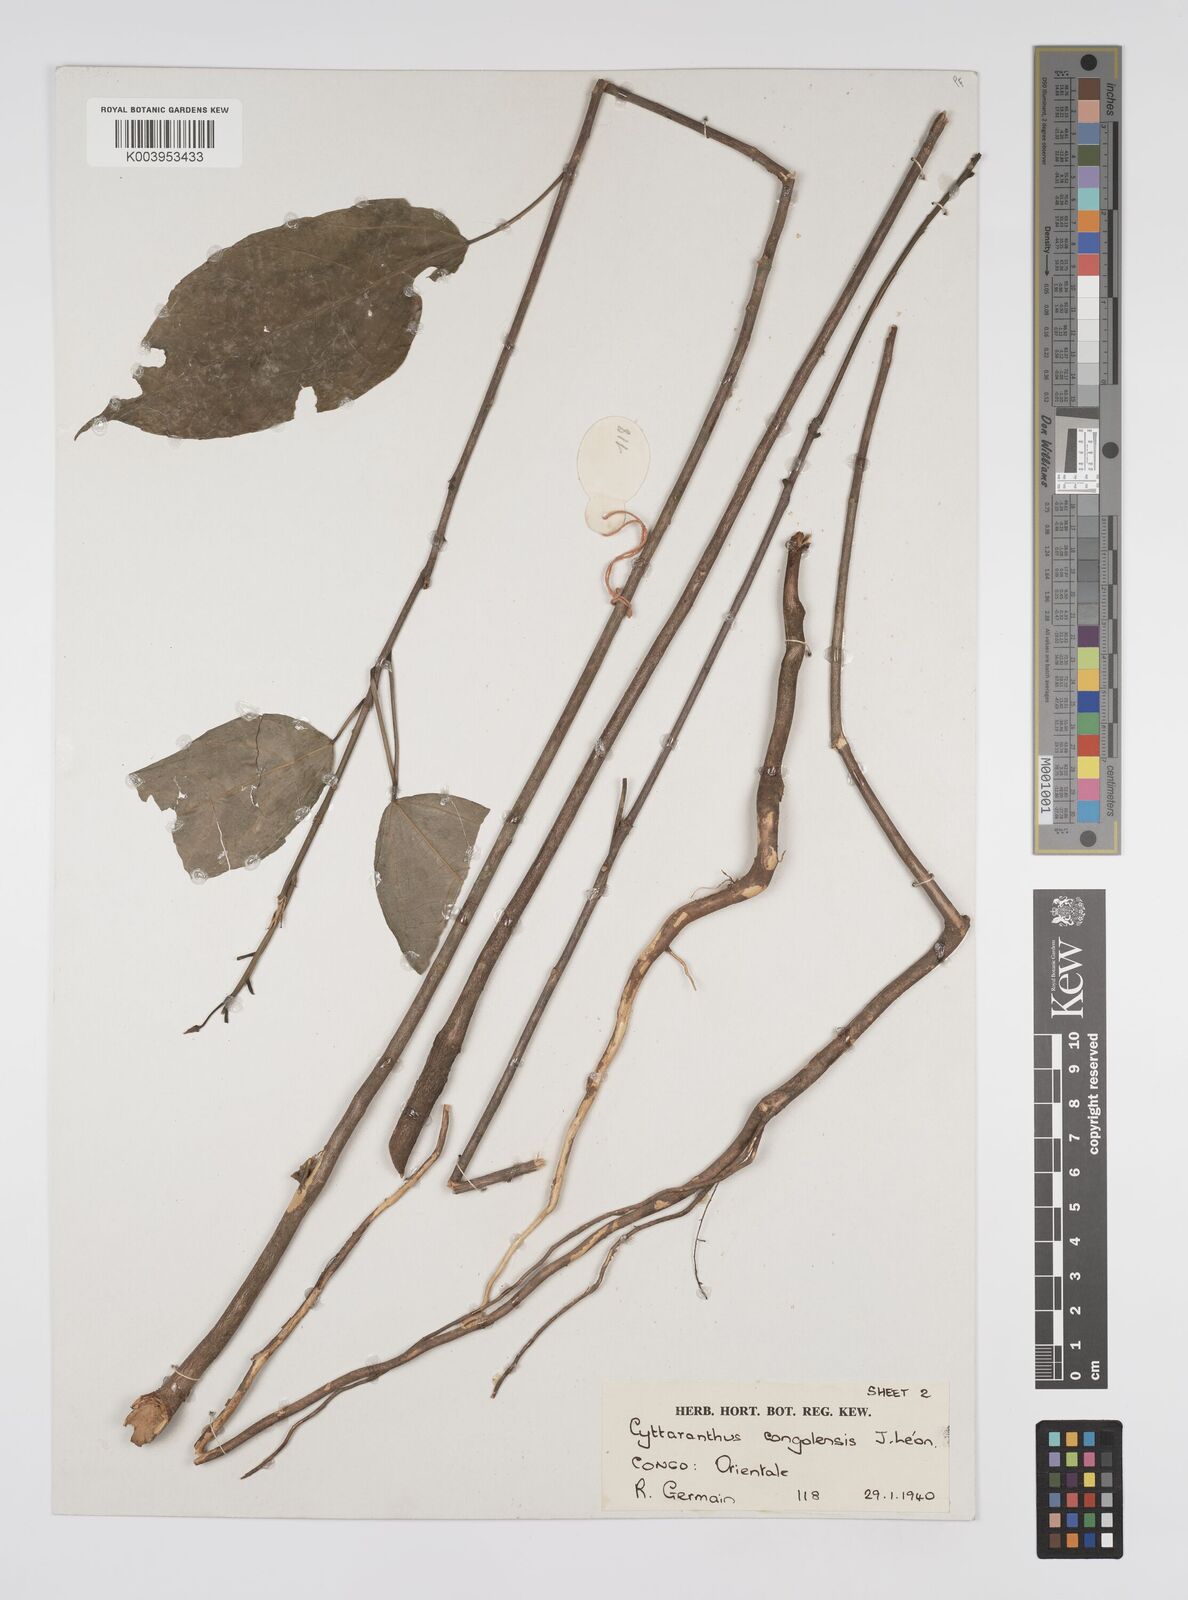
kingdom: Plantae
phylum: Tracheophyta
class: Magnoliopsida
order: Malpighiales
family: Euphorbiaceae
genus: Cyttaranthus
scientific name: Cyttaranthus congolensis
